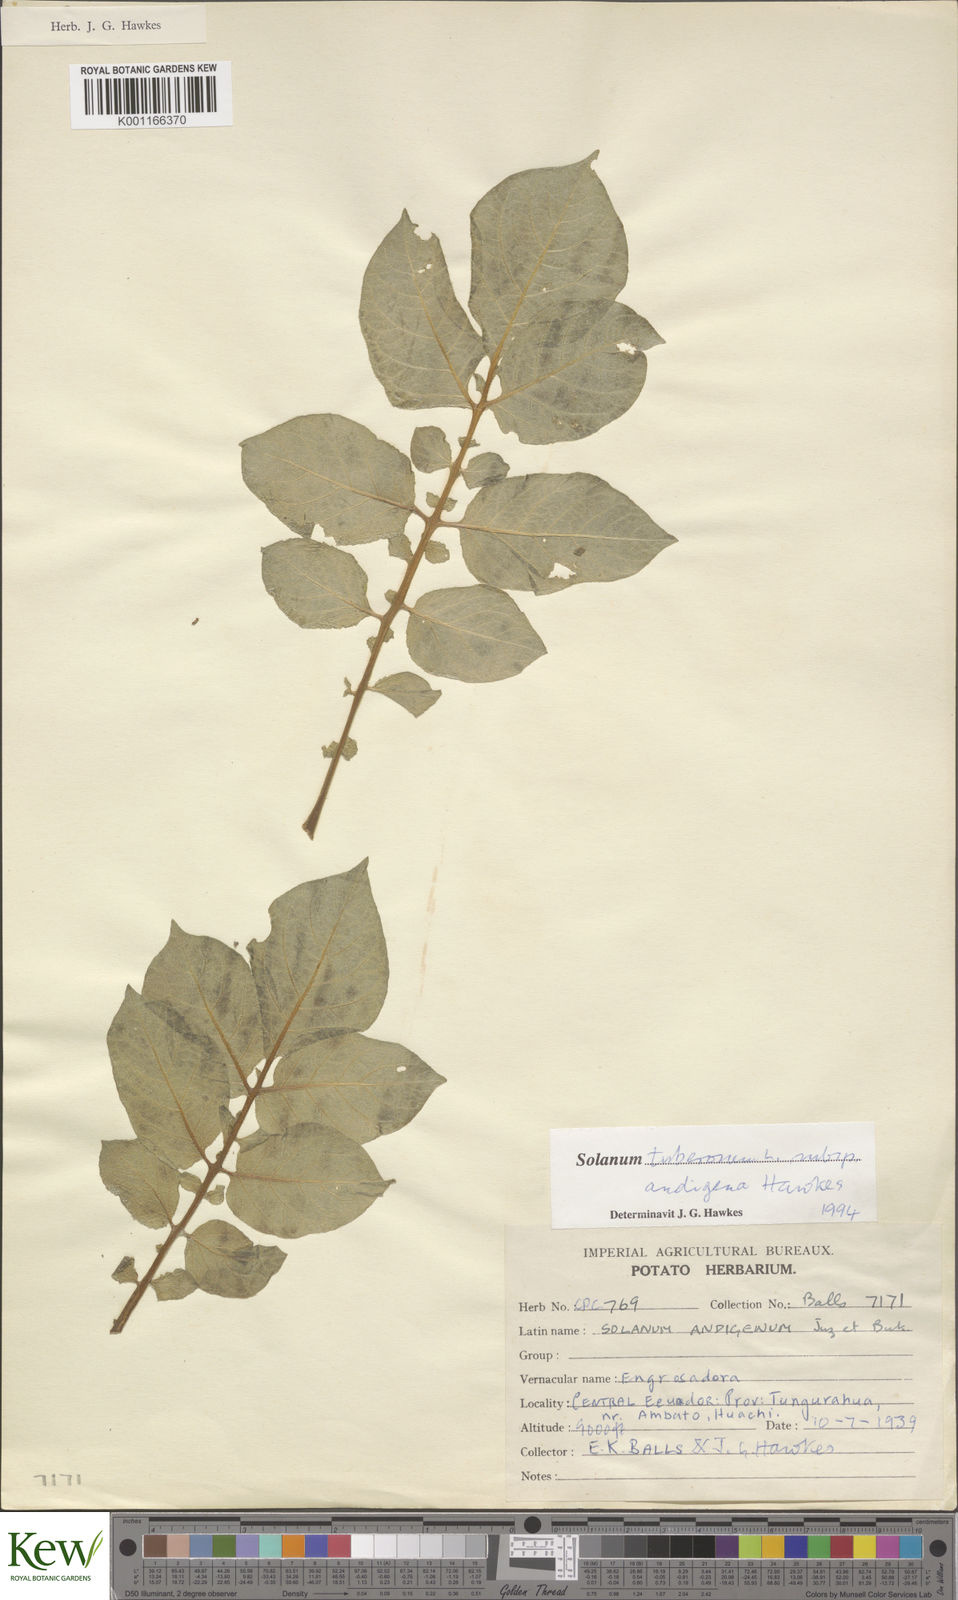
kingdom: Plantae
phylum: Tracheophyta
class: Magnoliopsida
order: Solanales
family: Solanaceae
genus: Solanum
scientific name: Solanum tuberosum
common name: Potato
